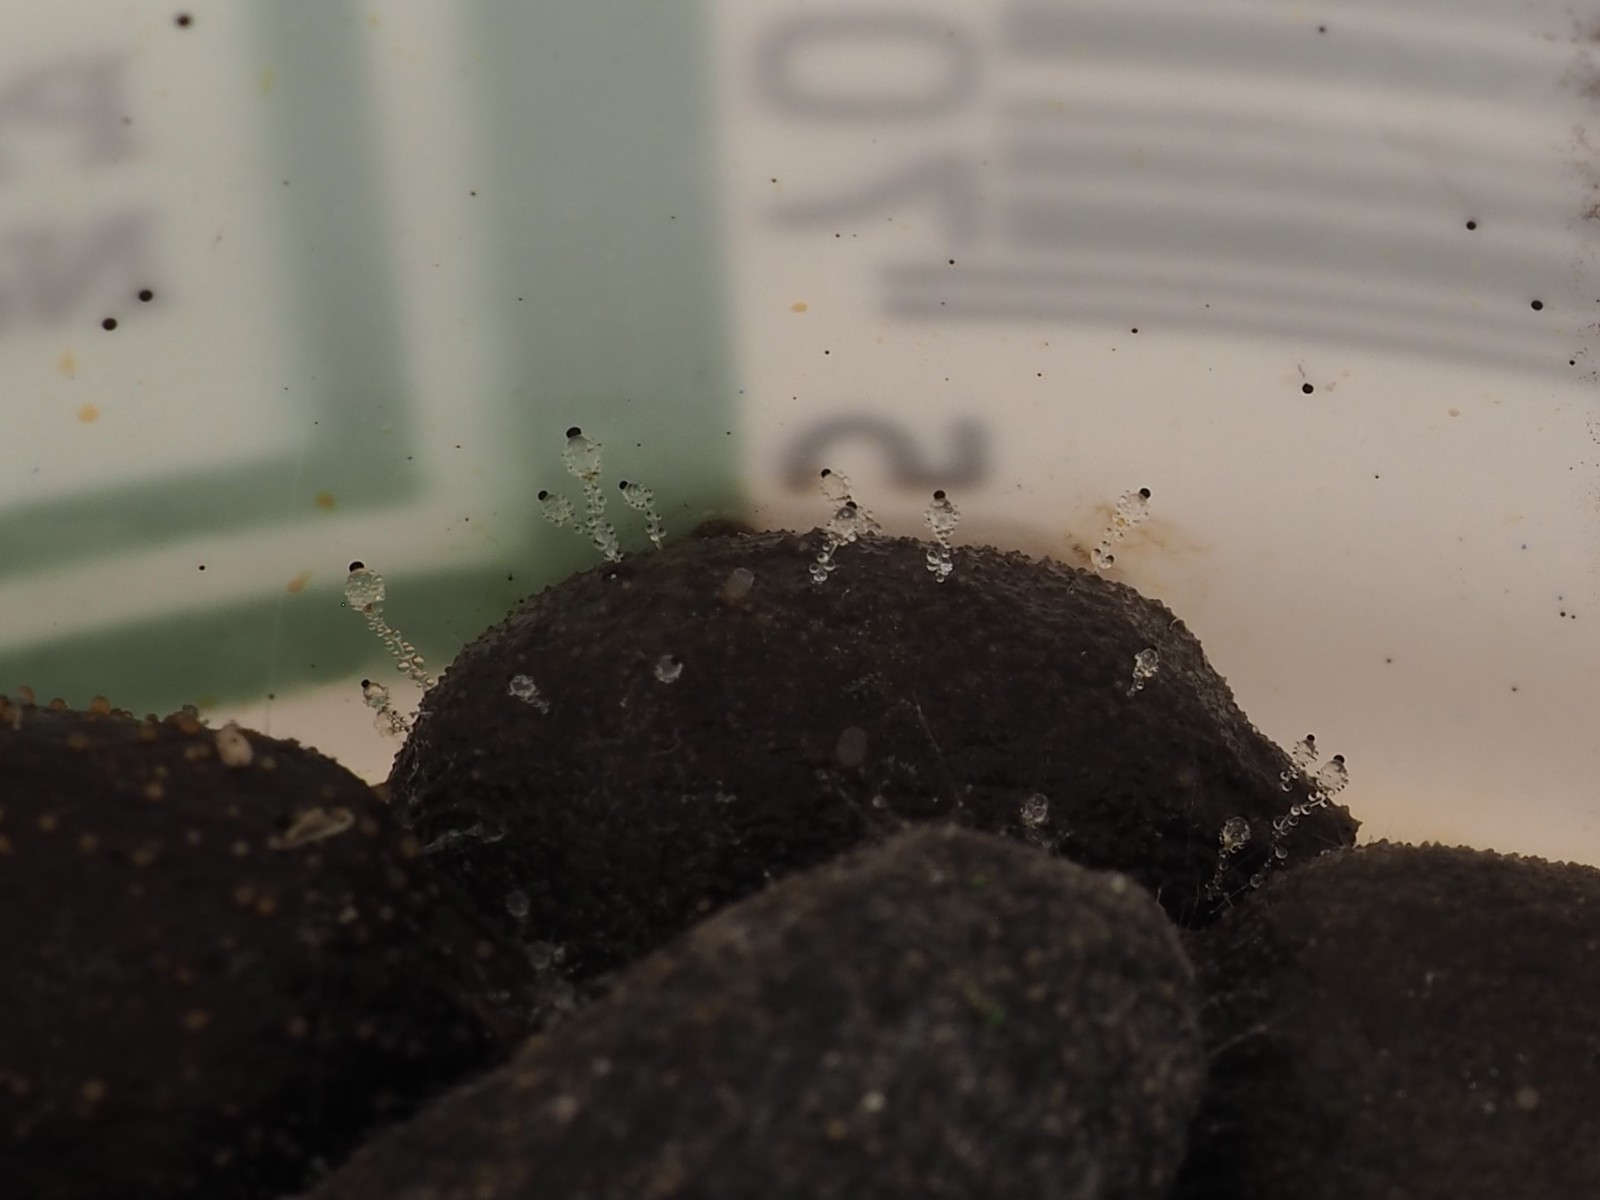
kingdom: Fungi
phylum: Mucoromycota
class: Mucoromycetes
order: Mucorales
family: Pilobolaceae
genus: Pilobolus
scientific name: Pilobolus
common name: boldkaster
